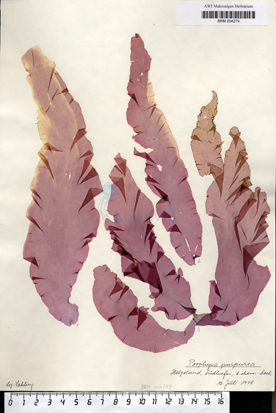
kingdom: Plantae
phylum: Rhodophyta
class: Bangiophyceae
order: Bangiales
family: Bangiaceae
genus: Porphyra
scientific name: Porphyra purpurea
